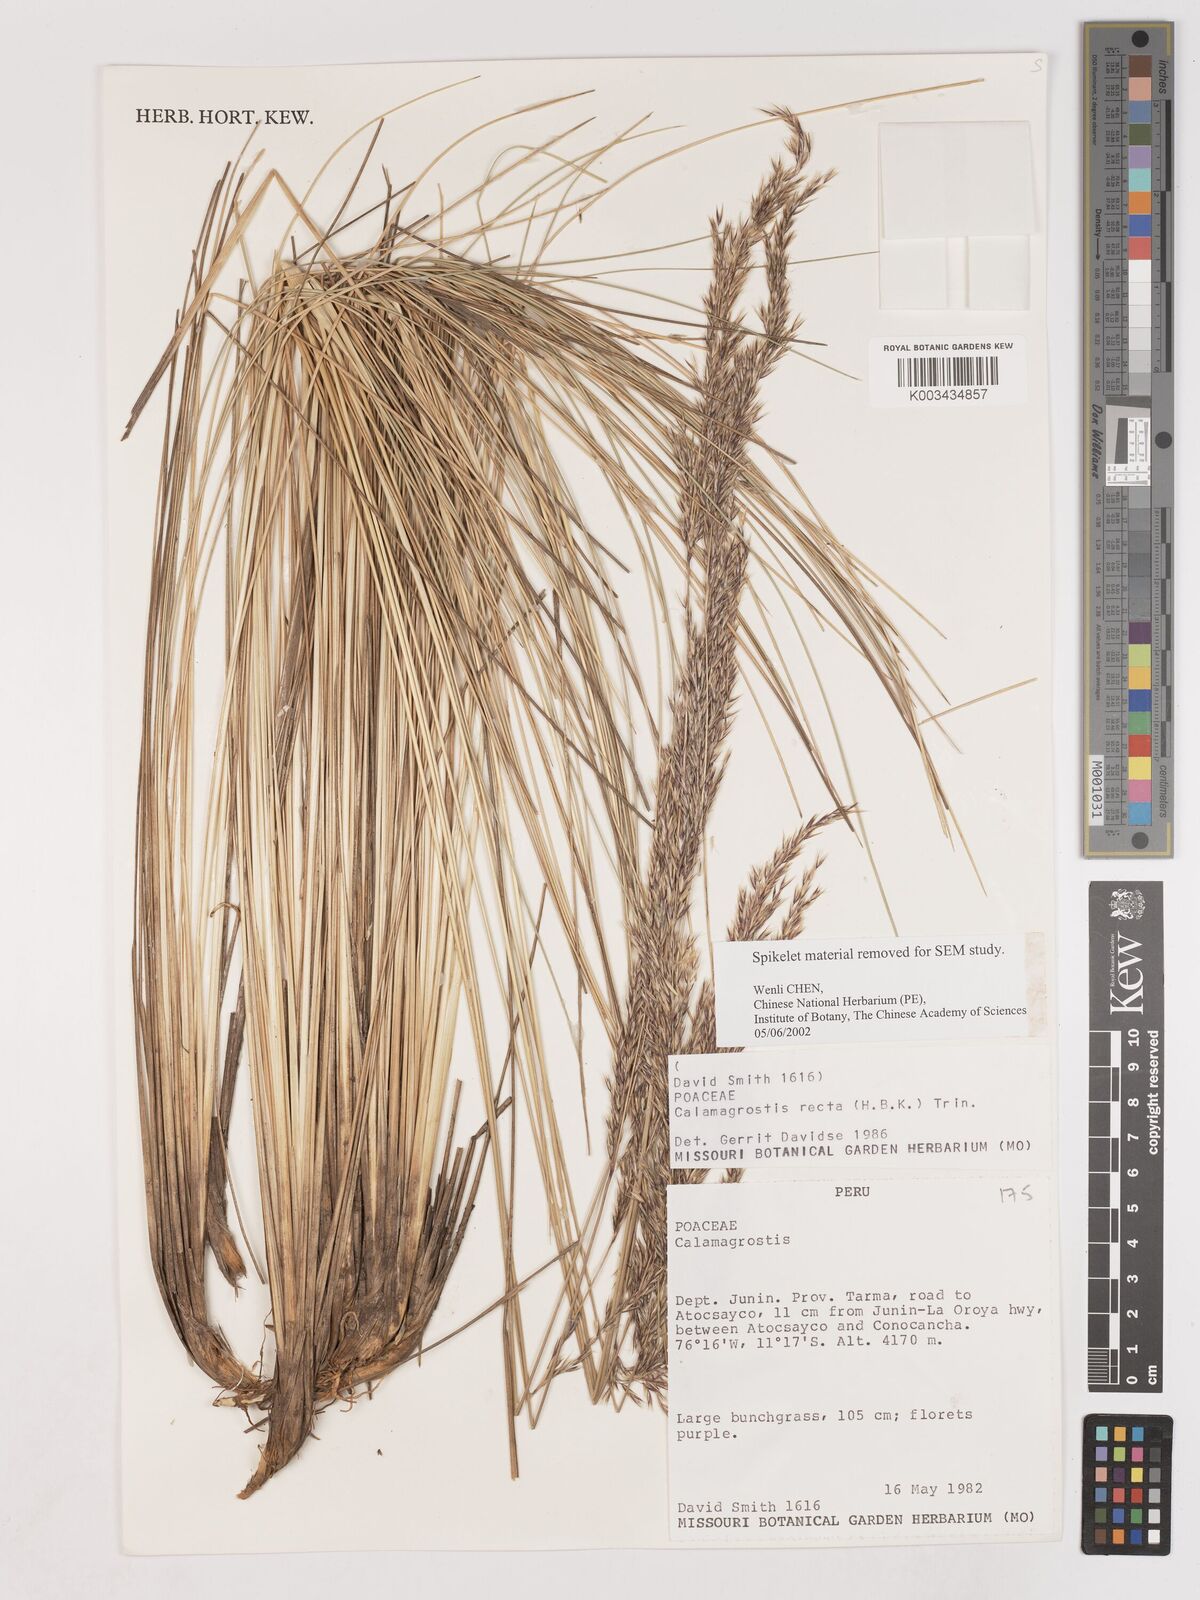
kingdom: Plantae
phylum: Tracheophyta
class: Liliopsida
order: Poales
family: Poaceae
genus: Cinnagrostis
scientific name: Cinnagrostis recta
